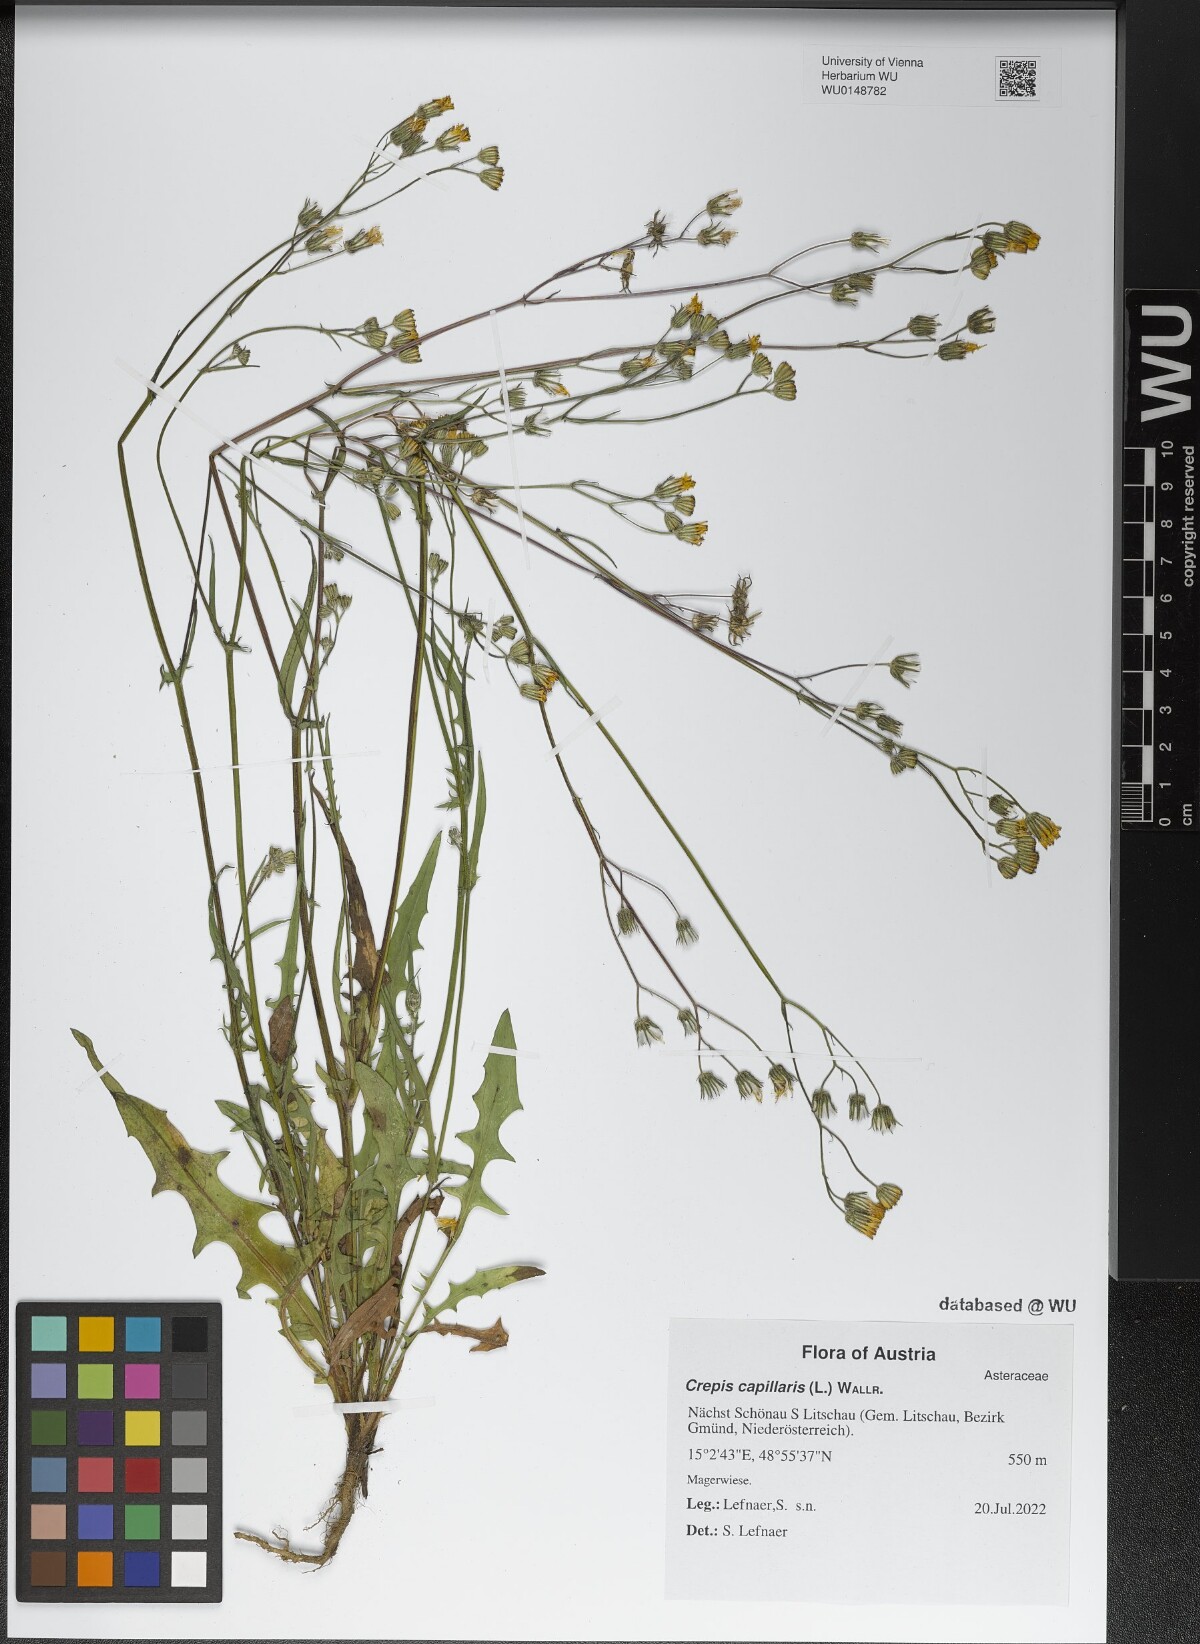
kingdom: Plantae
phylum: Tracheophyta
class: Magnoliopsida
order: Asterales
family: Asteraceae
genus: Crepis
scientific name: Crepis capillaris
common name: Smooth hawksbeard
